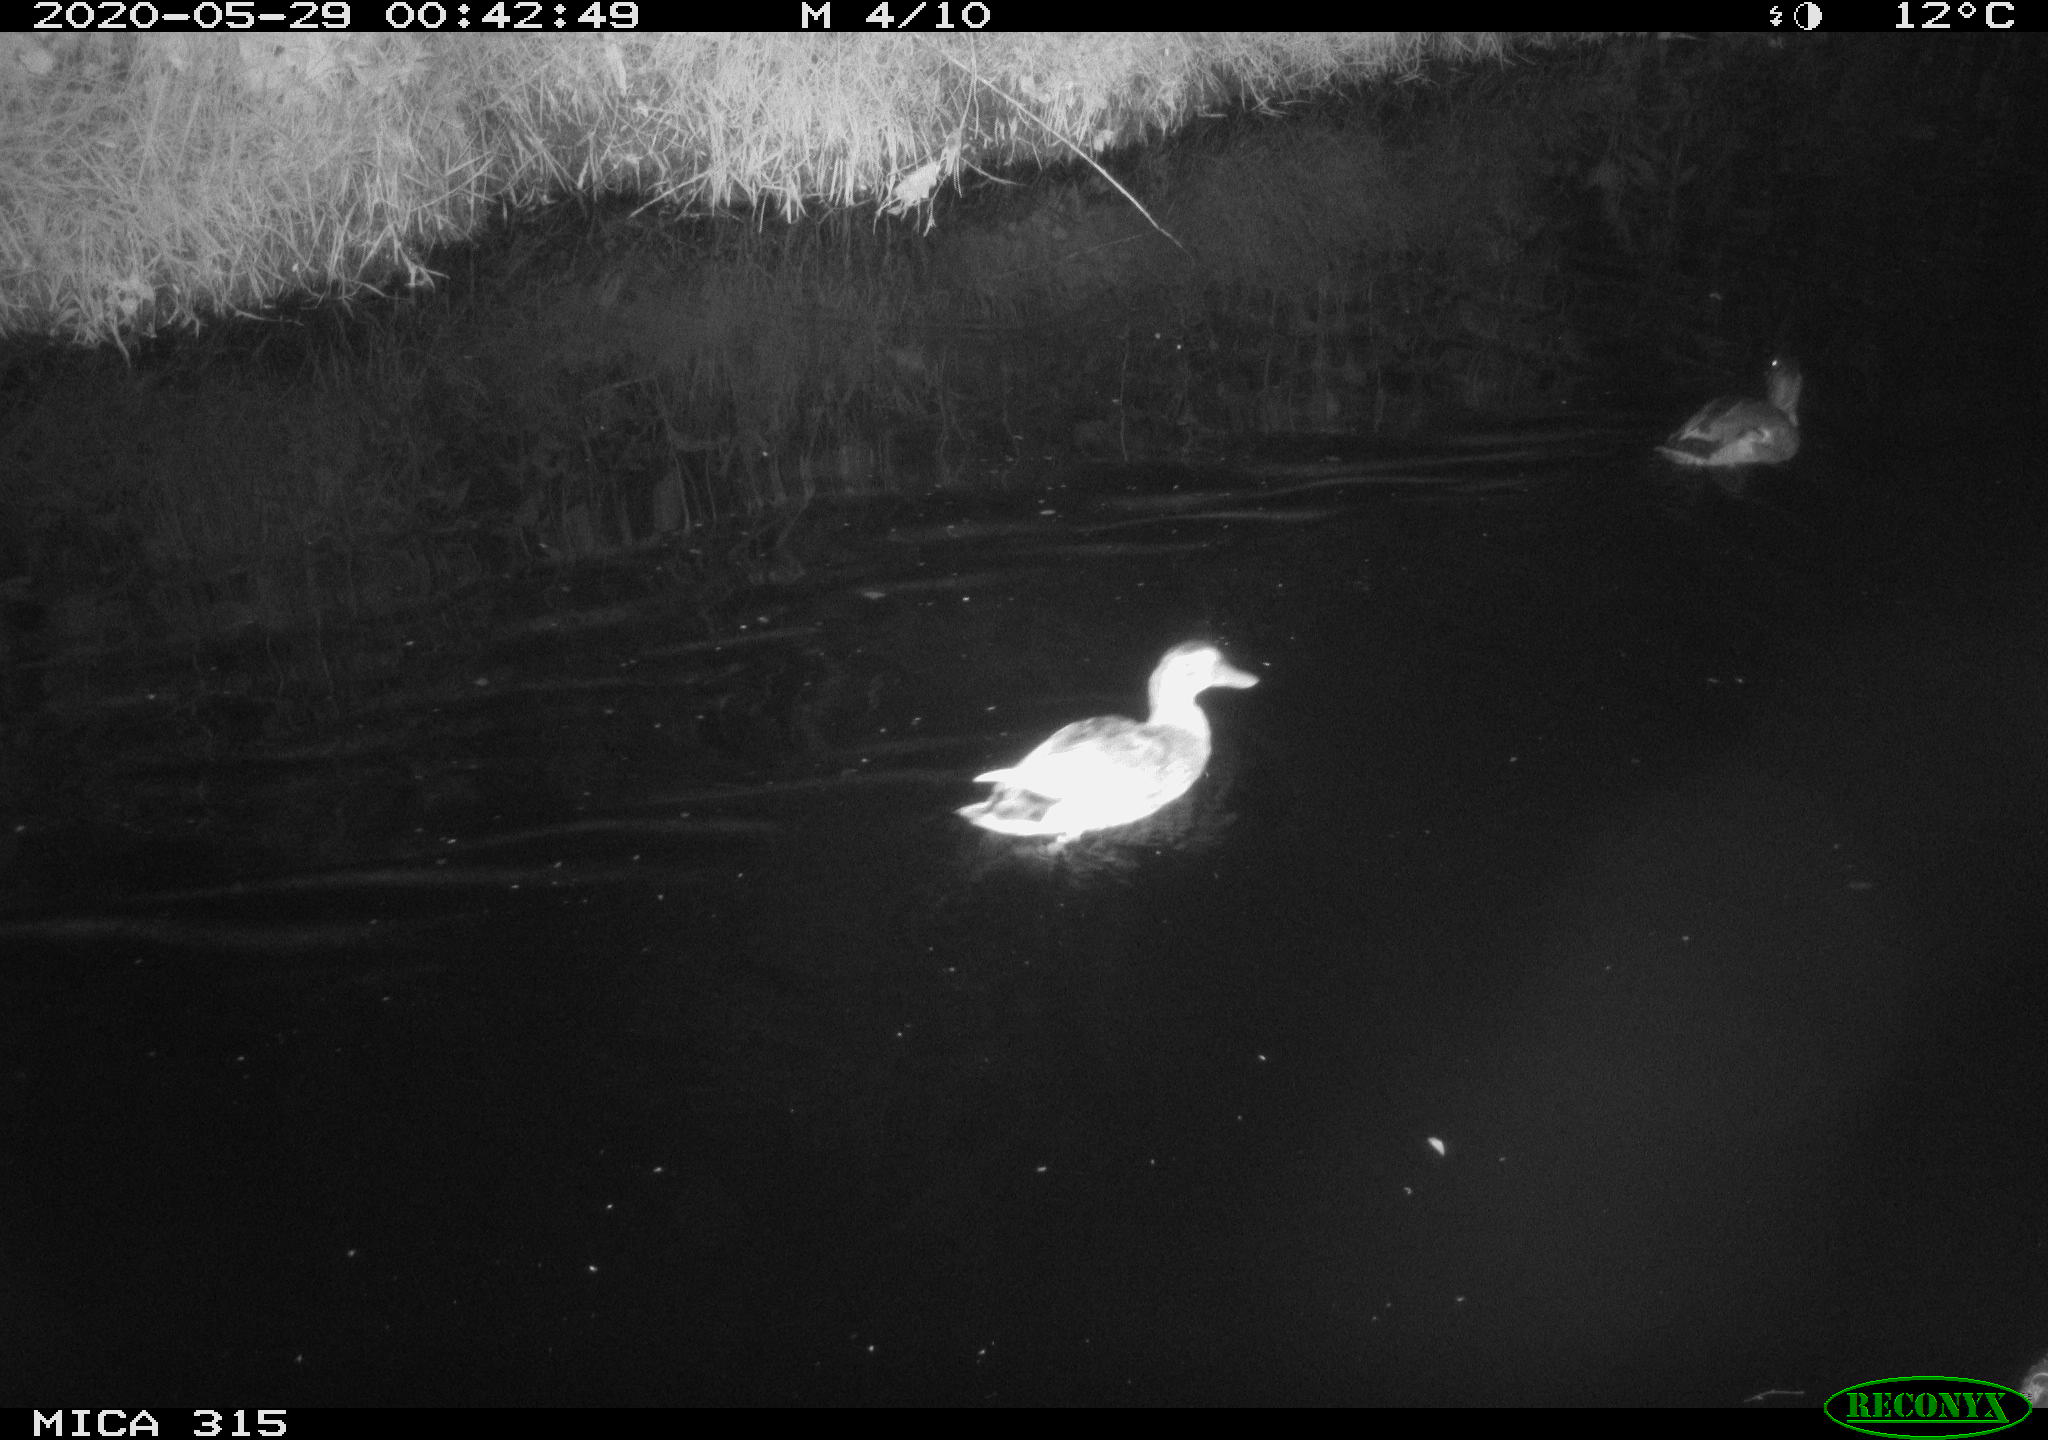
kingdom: Animalia
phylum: Chordata
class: Aves
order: Anseriformes
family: Anatidae
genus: Anas
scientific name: Anas platyrhynchos
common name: Mallard
